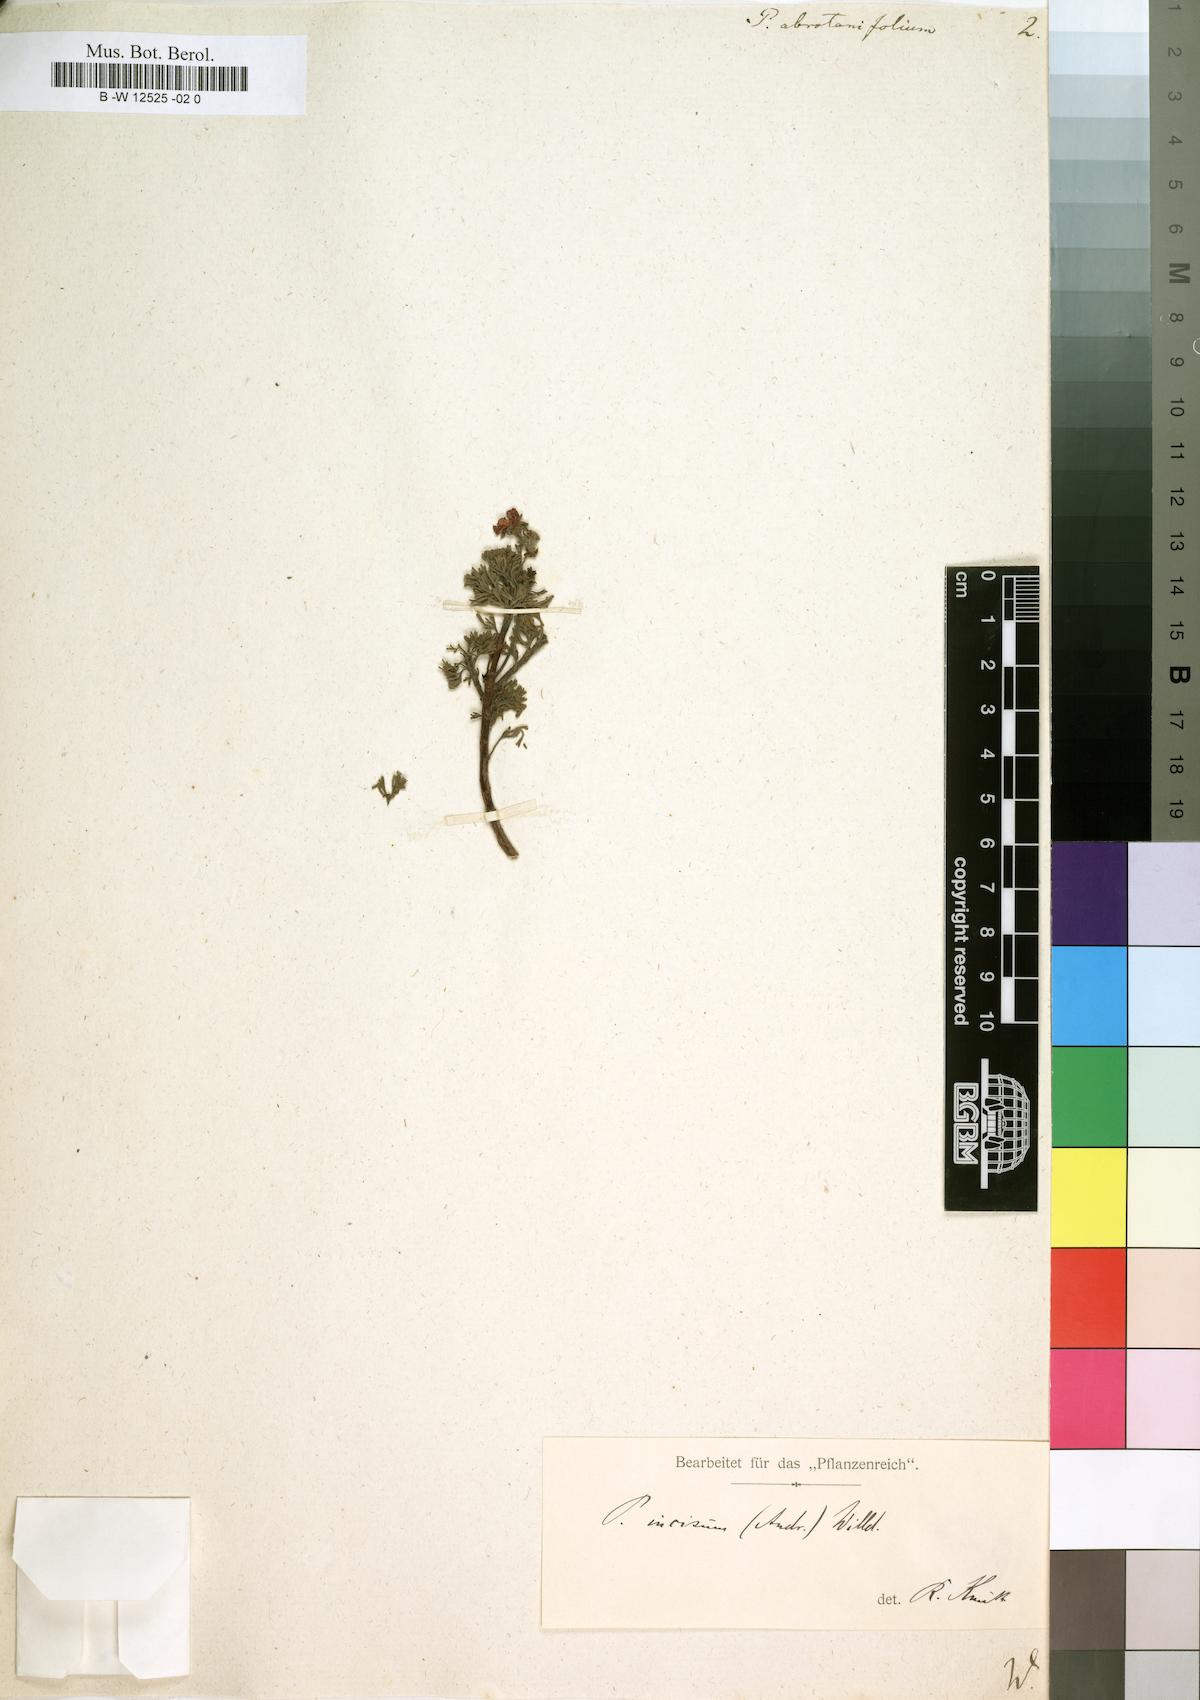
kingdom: Plantae
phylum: Tracheophyta
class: Magnoliopsida
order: Geraniales
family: Geraniaceae
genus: Pelargonium
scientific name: Pelargonium abrotanifolium
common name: Southernwood geranium
